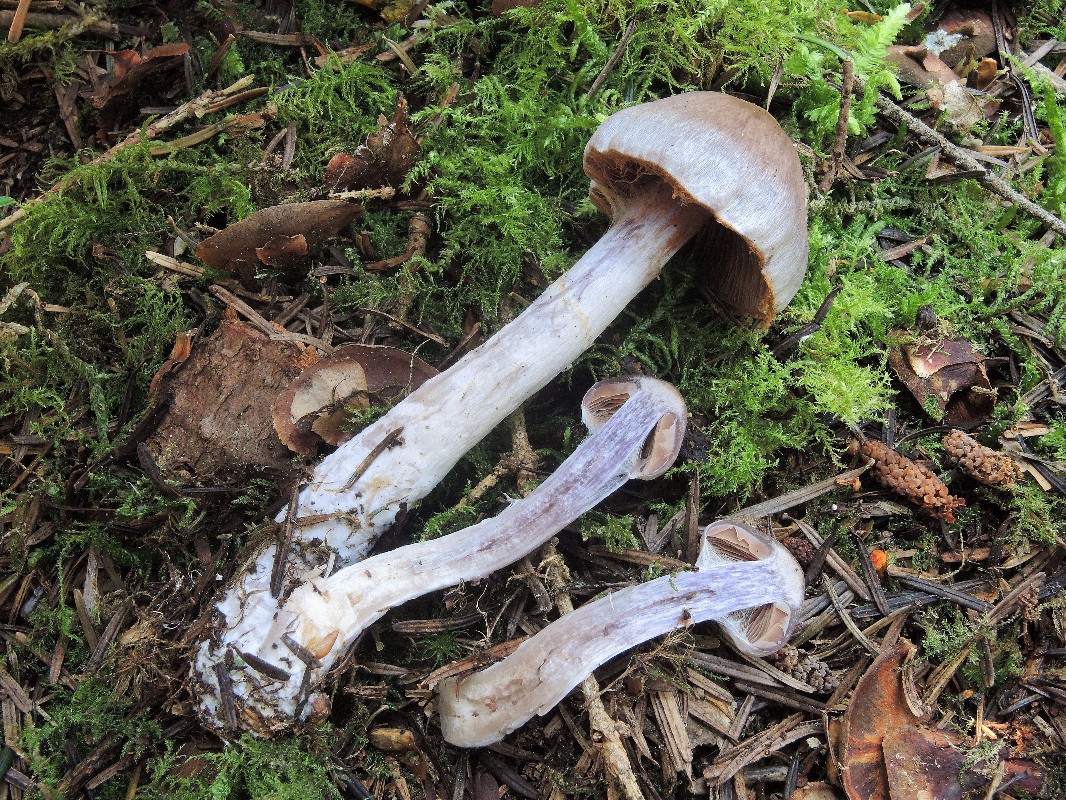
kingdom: Fungi
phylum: Basidiomycota
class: Agaricomycetes
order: Agaricales
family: Cortinariaceae
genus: Cortinarius
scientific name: Cortinarius kauffmanianus
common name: plantage-slørhat
